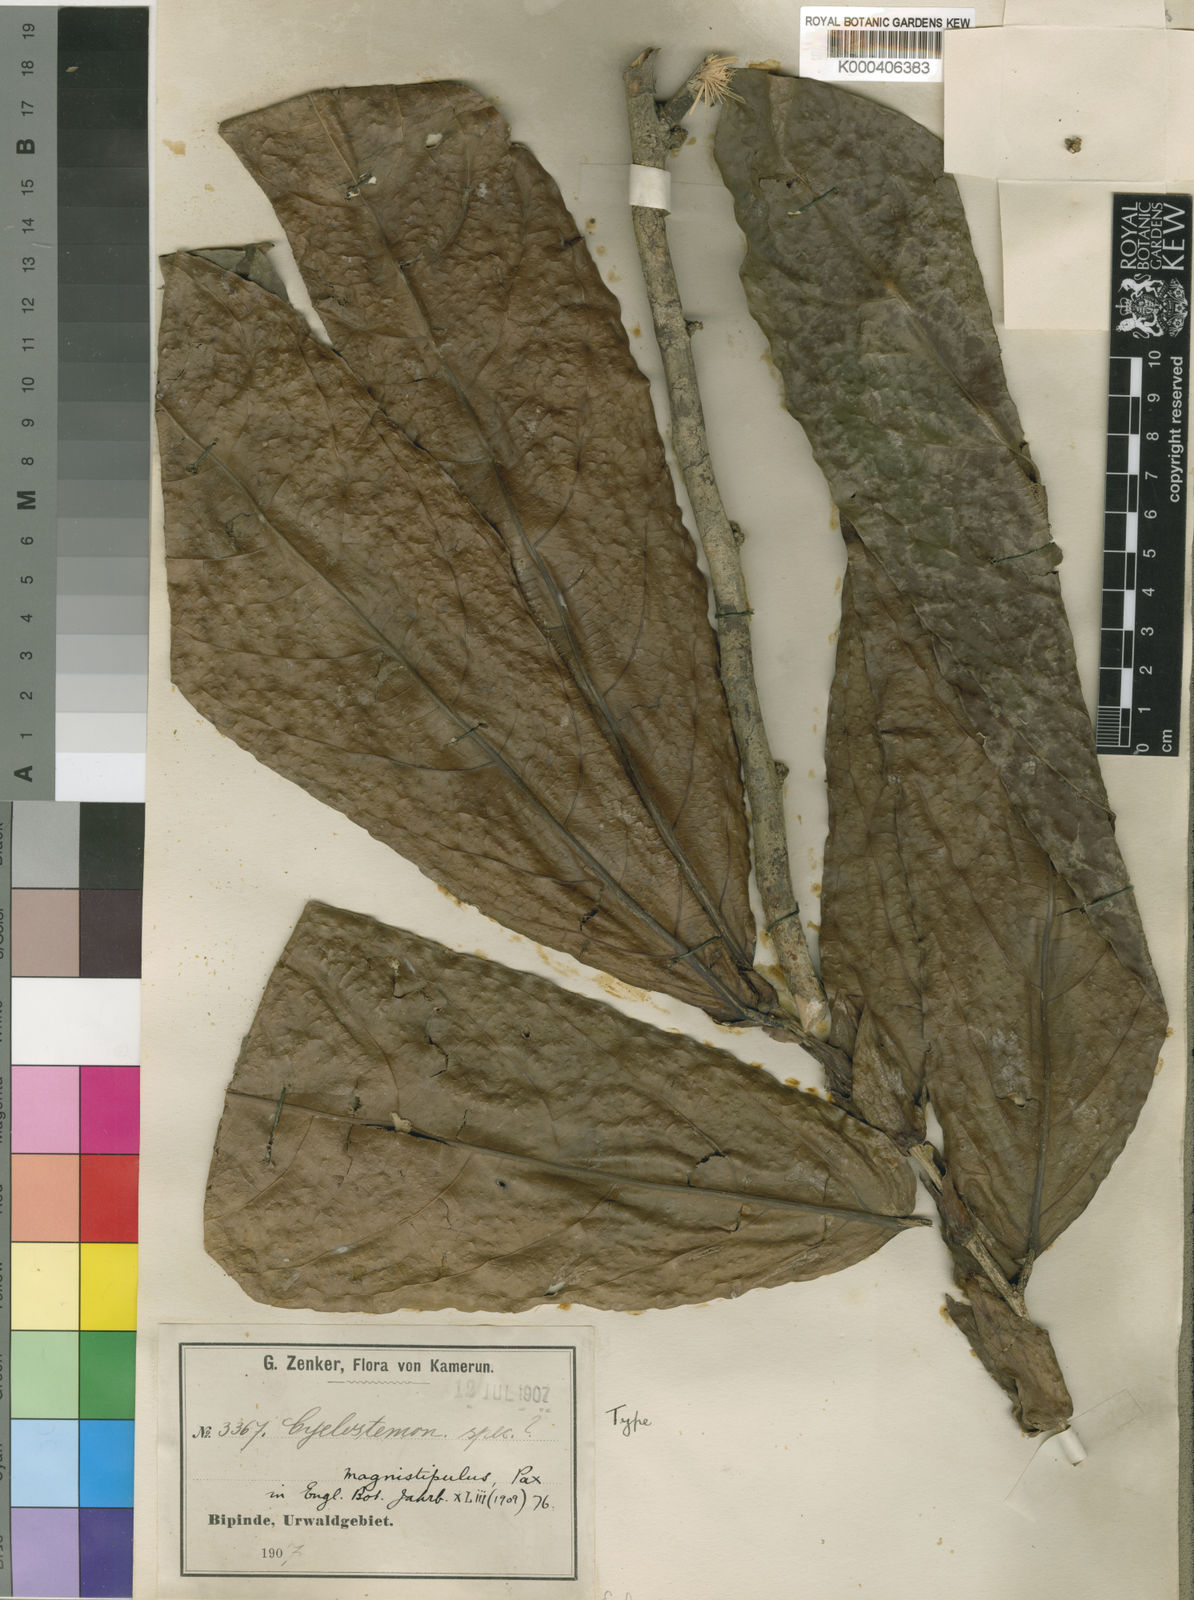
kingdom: Plantae
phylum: Tracheophyta
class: Magnoliopsida
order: Malpighiales
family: Putranjivaceae
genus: Drypetes
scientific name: Drypetes magnistipula
